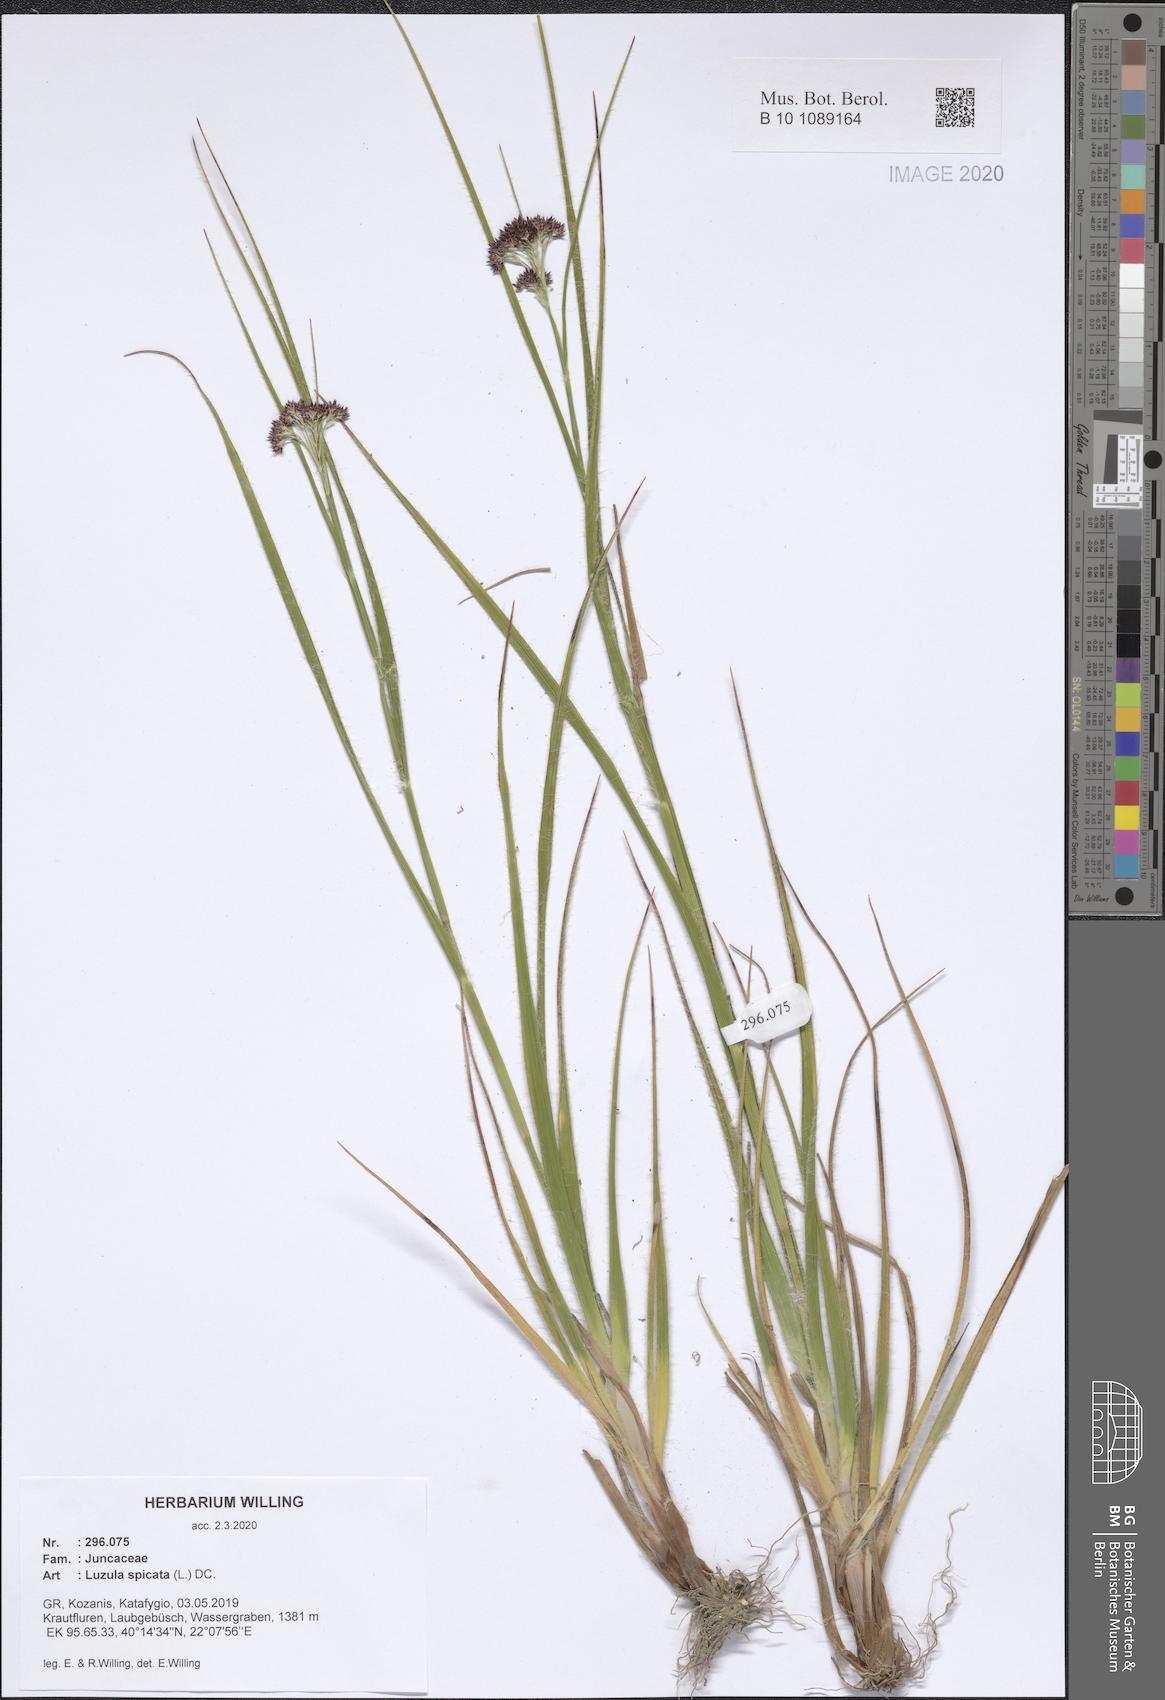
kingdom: Plantae
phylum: Tracheophyta
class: Liliopsida
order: Poales
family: Juncaceae
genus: Luzula
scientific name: Luzula spicata
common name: Spiked wood-rush
